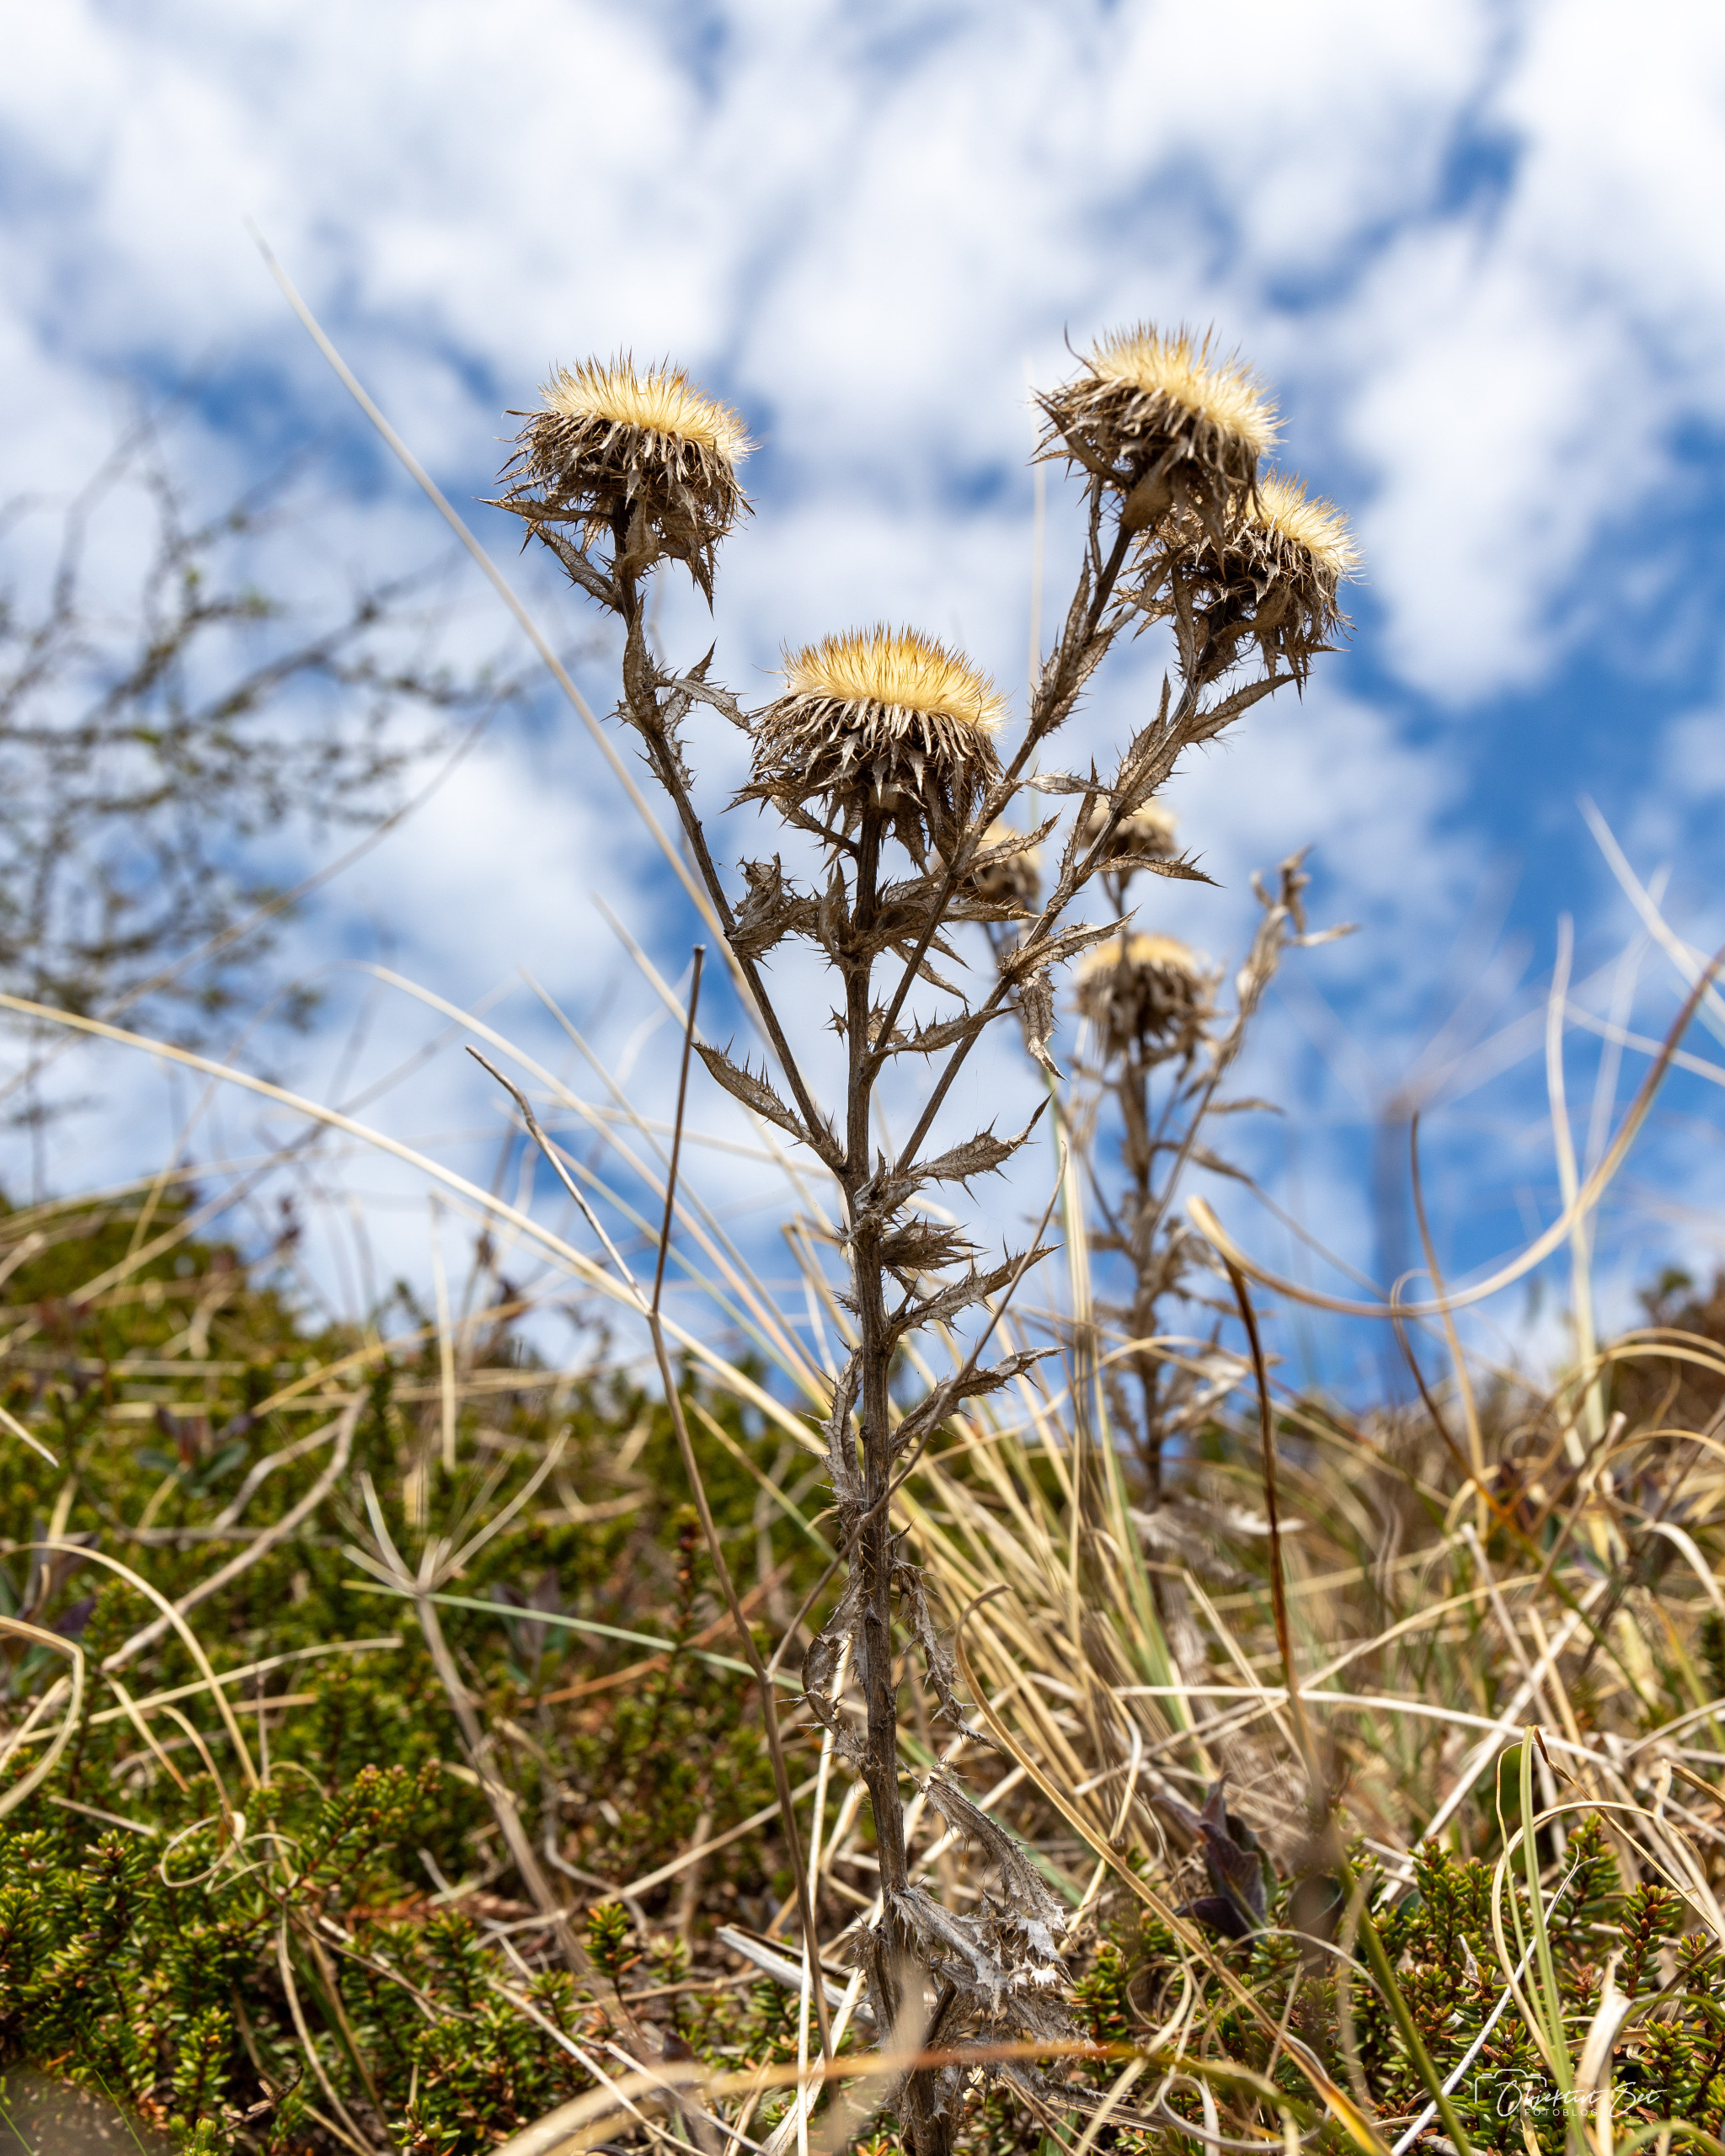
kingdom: Plantae
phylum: Tracheophyta
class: Magnoliopsida
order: Asterales
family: Asteraceae
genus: Carlina
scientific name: Carlina vulgaris
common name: Bakketidsel
